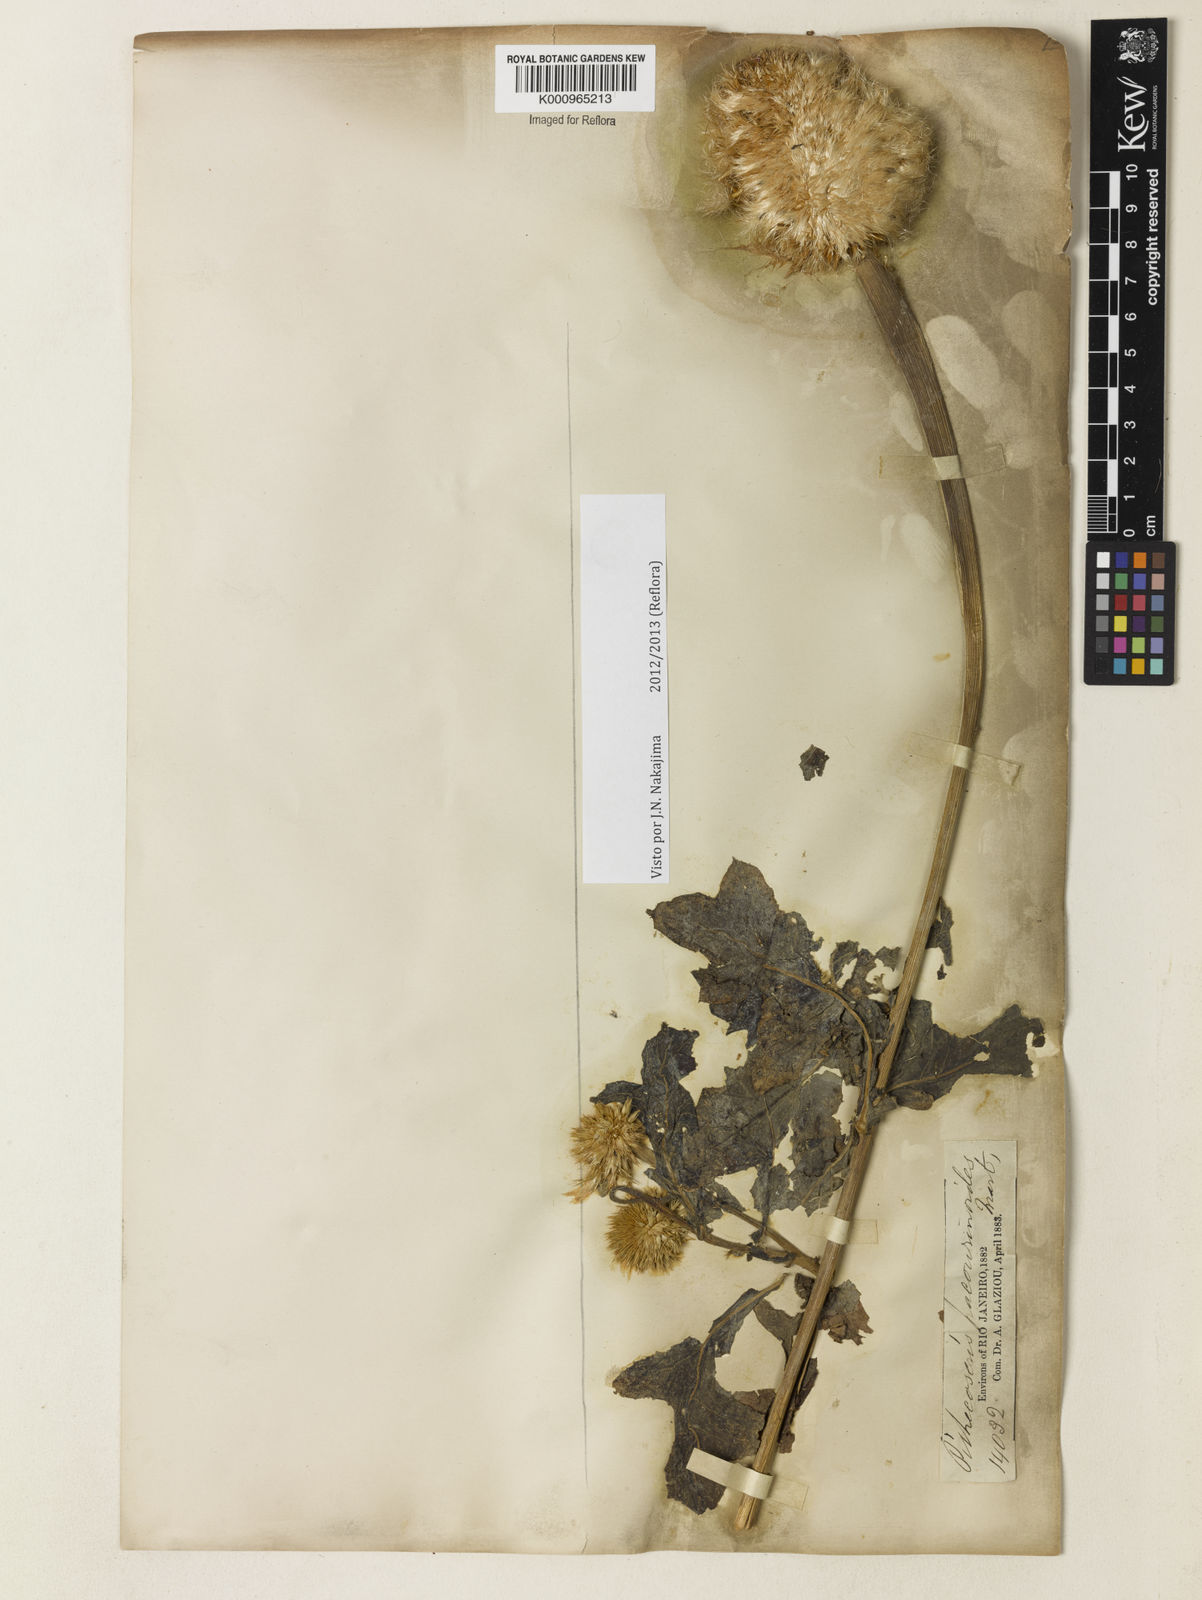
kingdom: Plantae
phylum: Tracheophyta
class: Magnoliopsida
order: Asterales
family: Asteraceae
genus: Chresta
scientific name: Chresta pacourinoides
